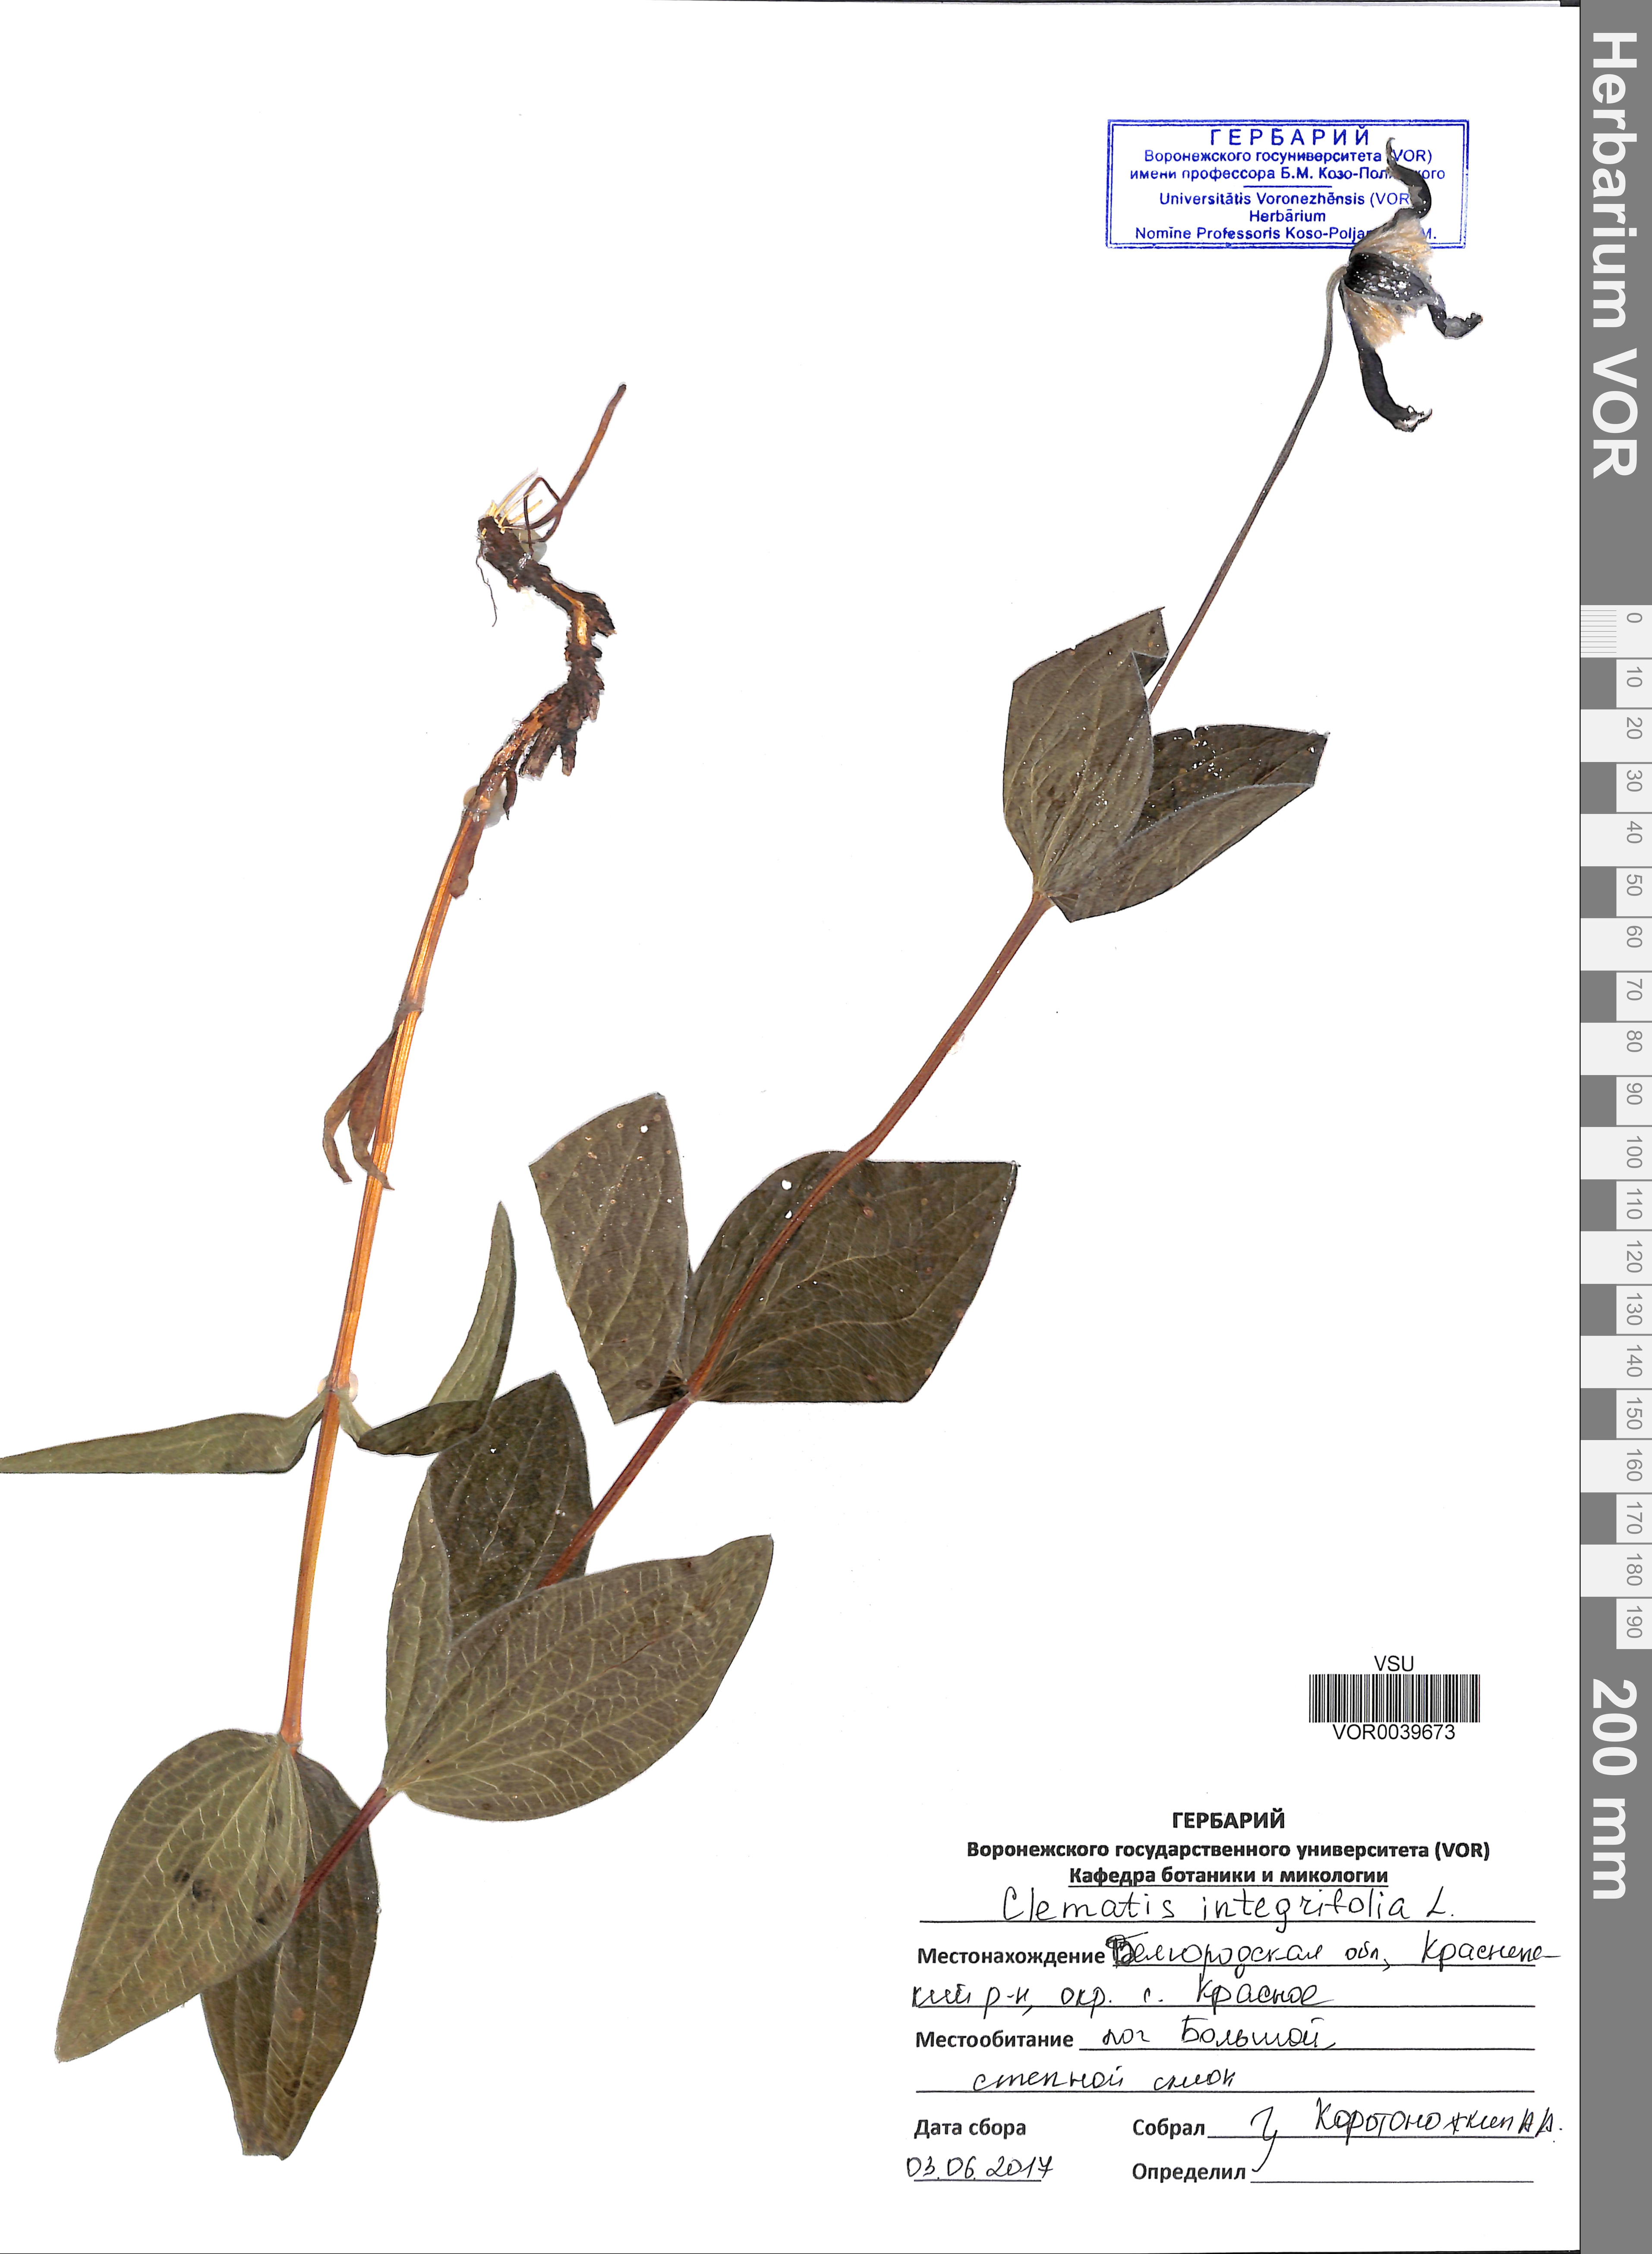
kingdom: Plantae
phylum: Tracheophyta
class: Magnoliopsida
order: Ranunculales
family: Ranunculaceae
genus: Clematis
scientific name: Clematis integrifolia
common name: Solitary clematis
